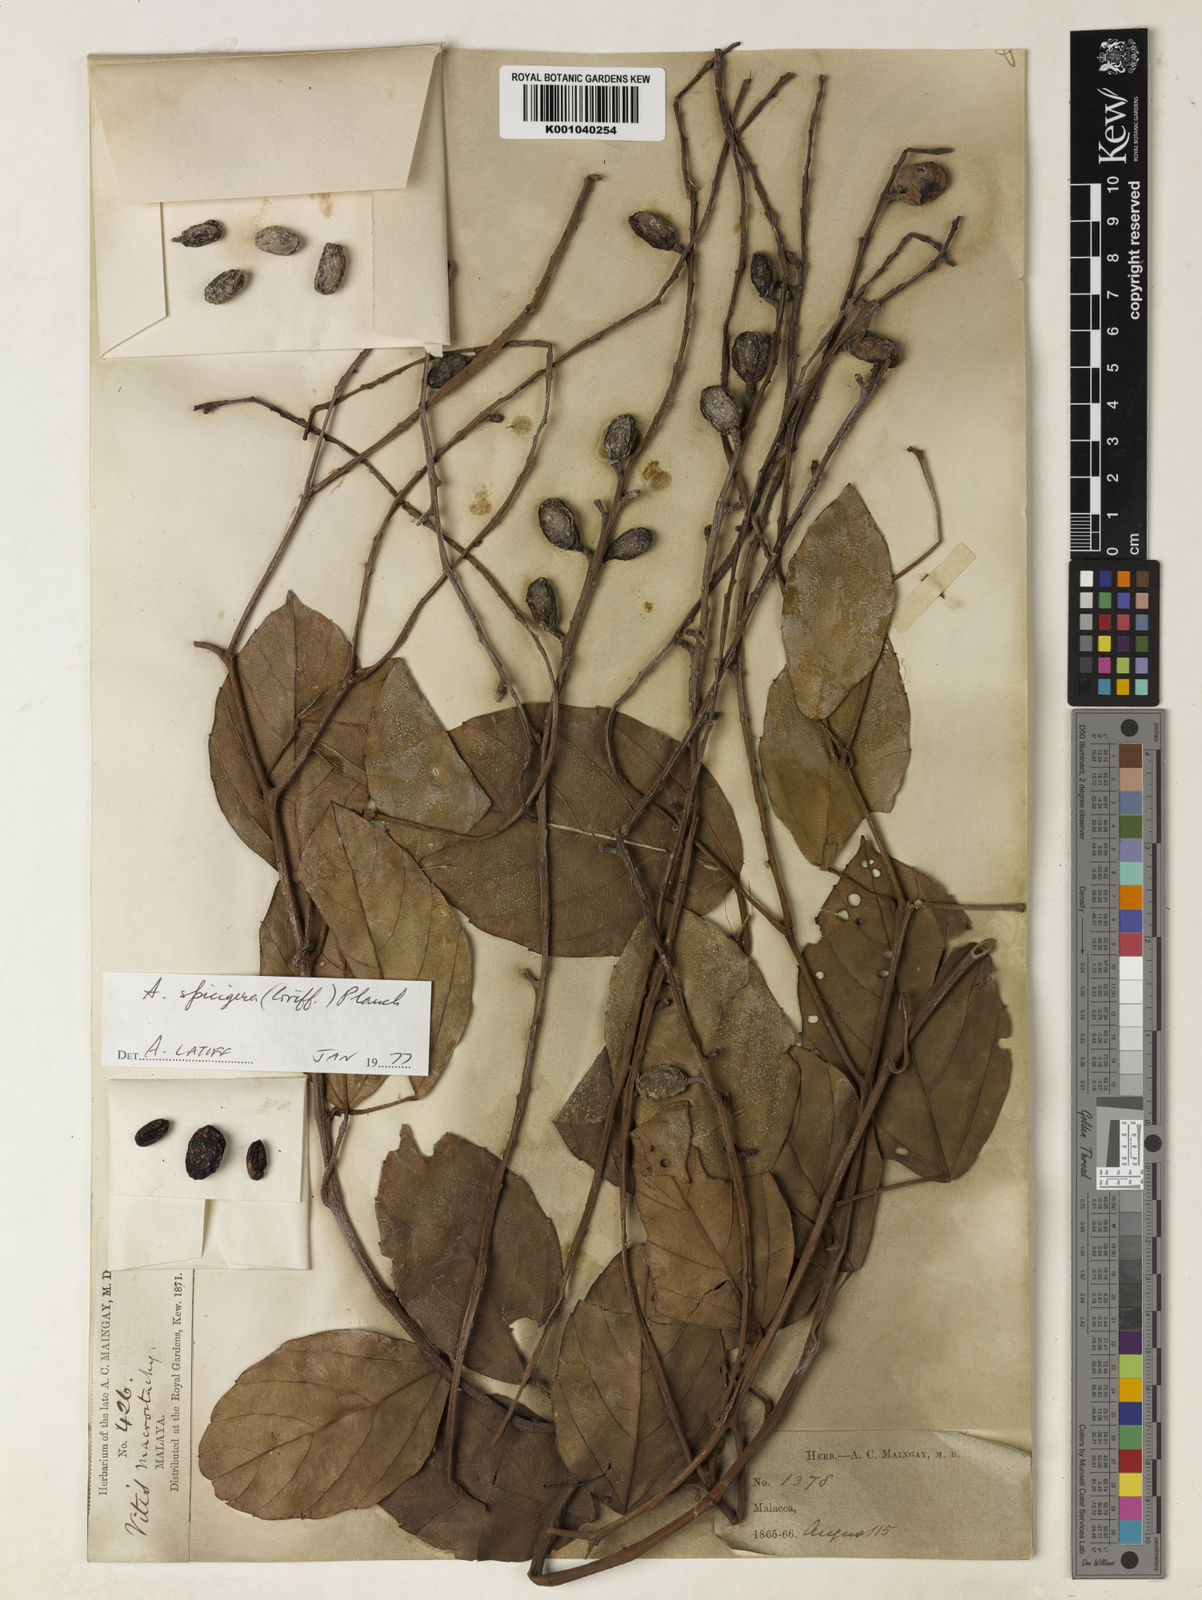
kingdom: Plantae
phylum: Tracheophyta
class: Magnoliopsida
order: Vitales
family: Vitaceae
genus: Nothocissus
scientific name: Nothocissus spicifera
